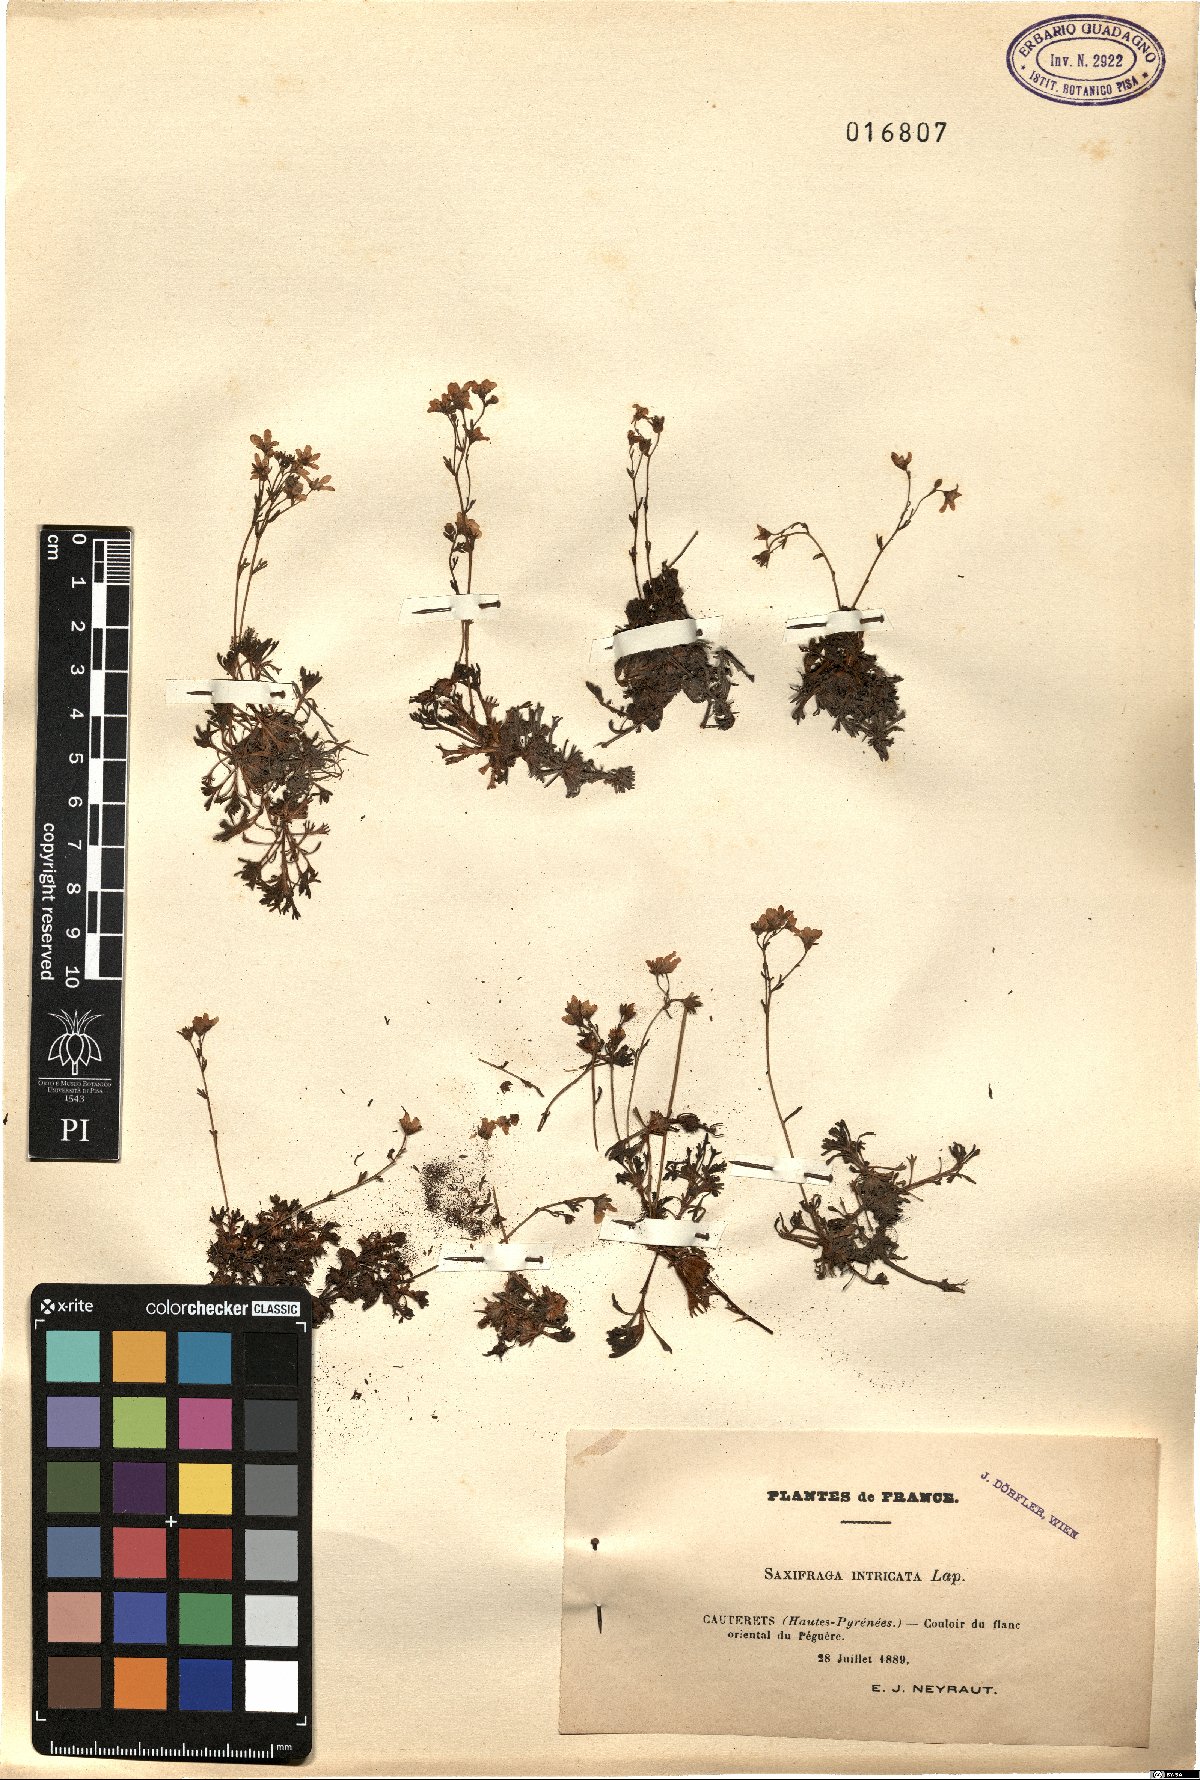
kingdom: Plantae
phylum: Tracheophyta
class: Magnoliopsida
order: Saxifragales
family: Saxifragaceae
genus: Saxifraga
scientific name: Saxifraga intricata
